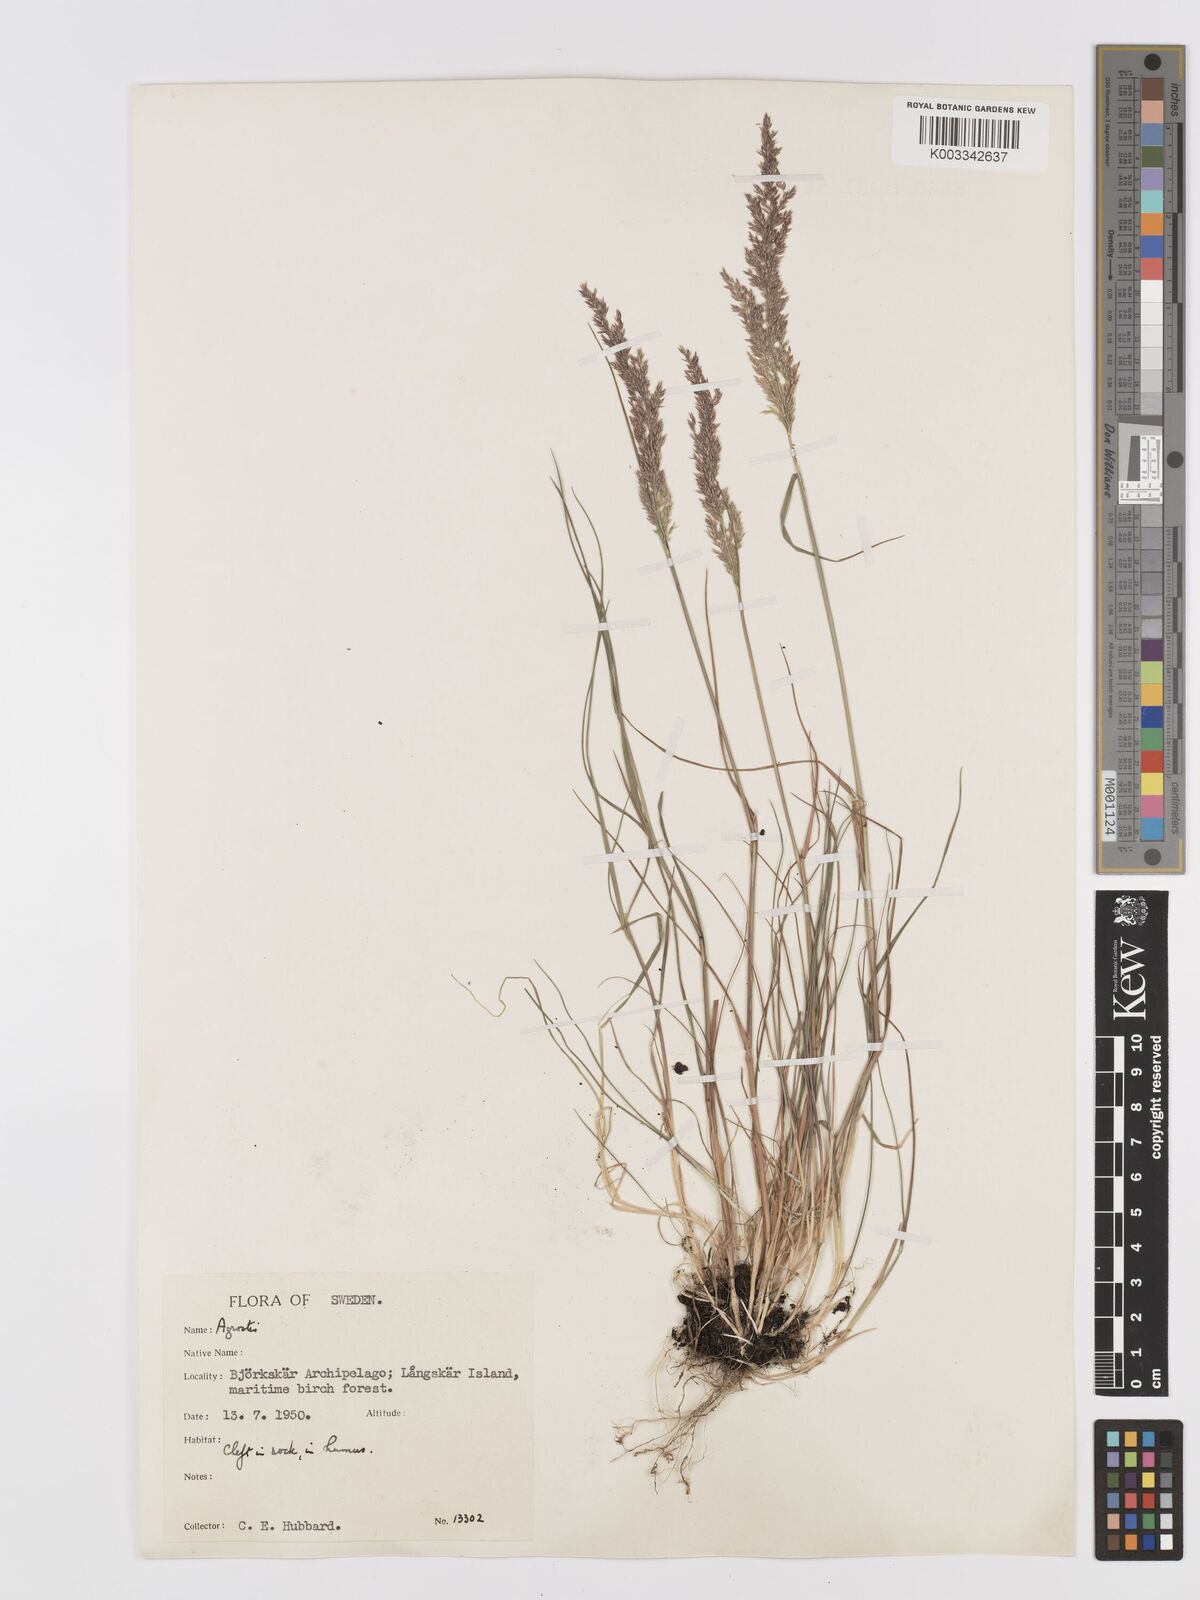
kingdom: Plantae
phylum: Tracheophyta
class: Liliopsida
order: Poales
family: Poaceae
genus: Agrostis
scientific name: Agrostis
